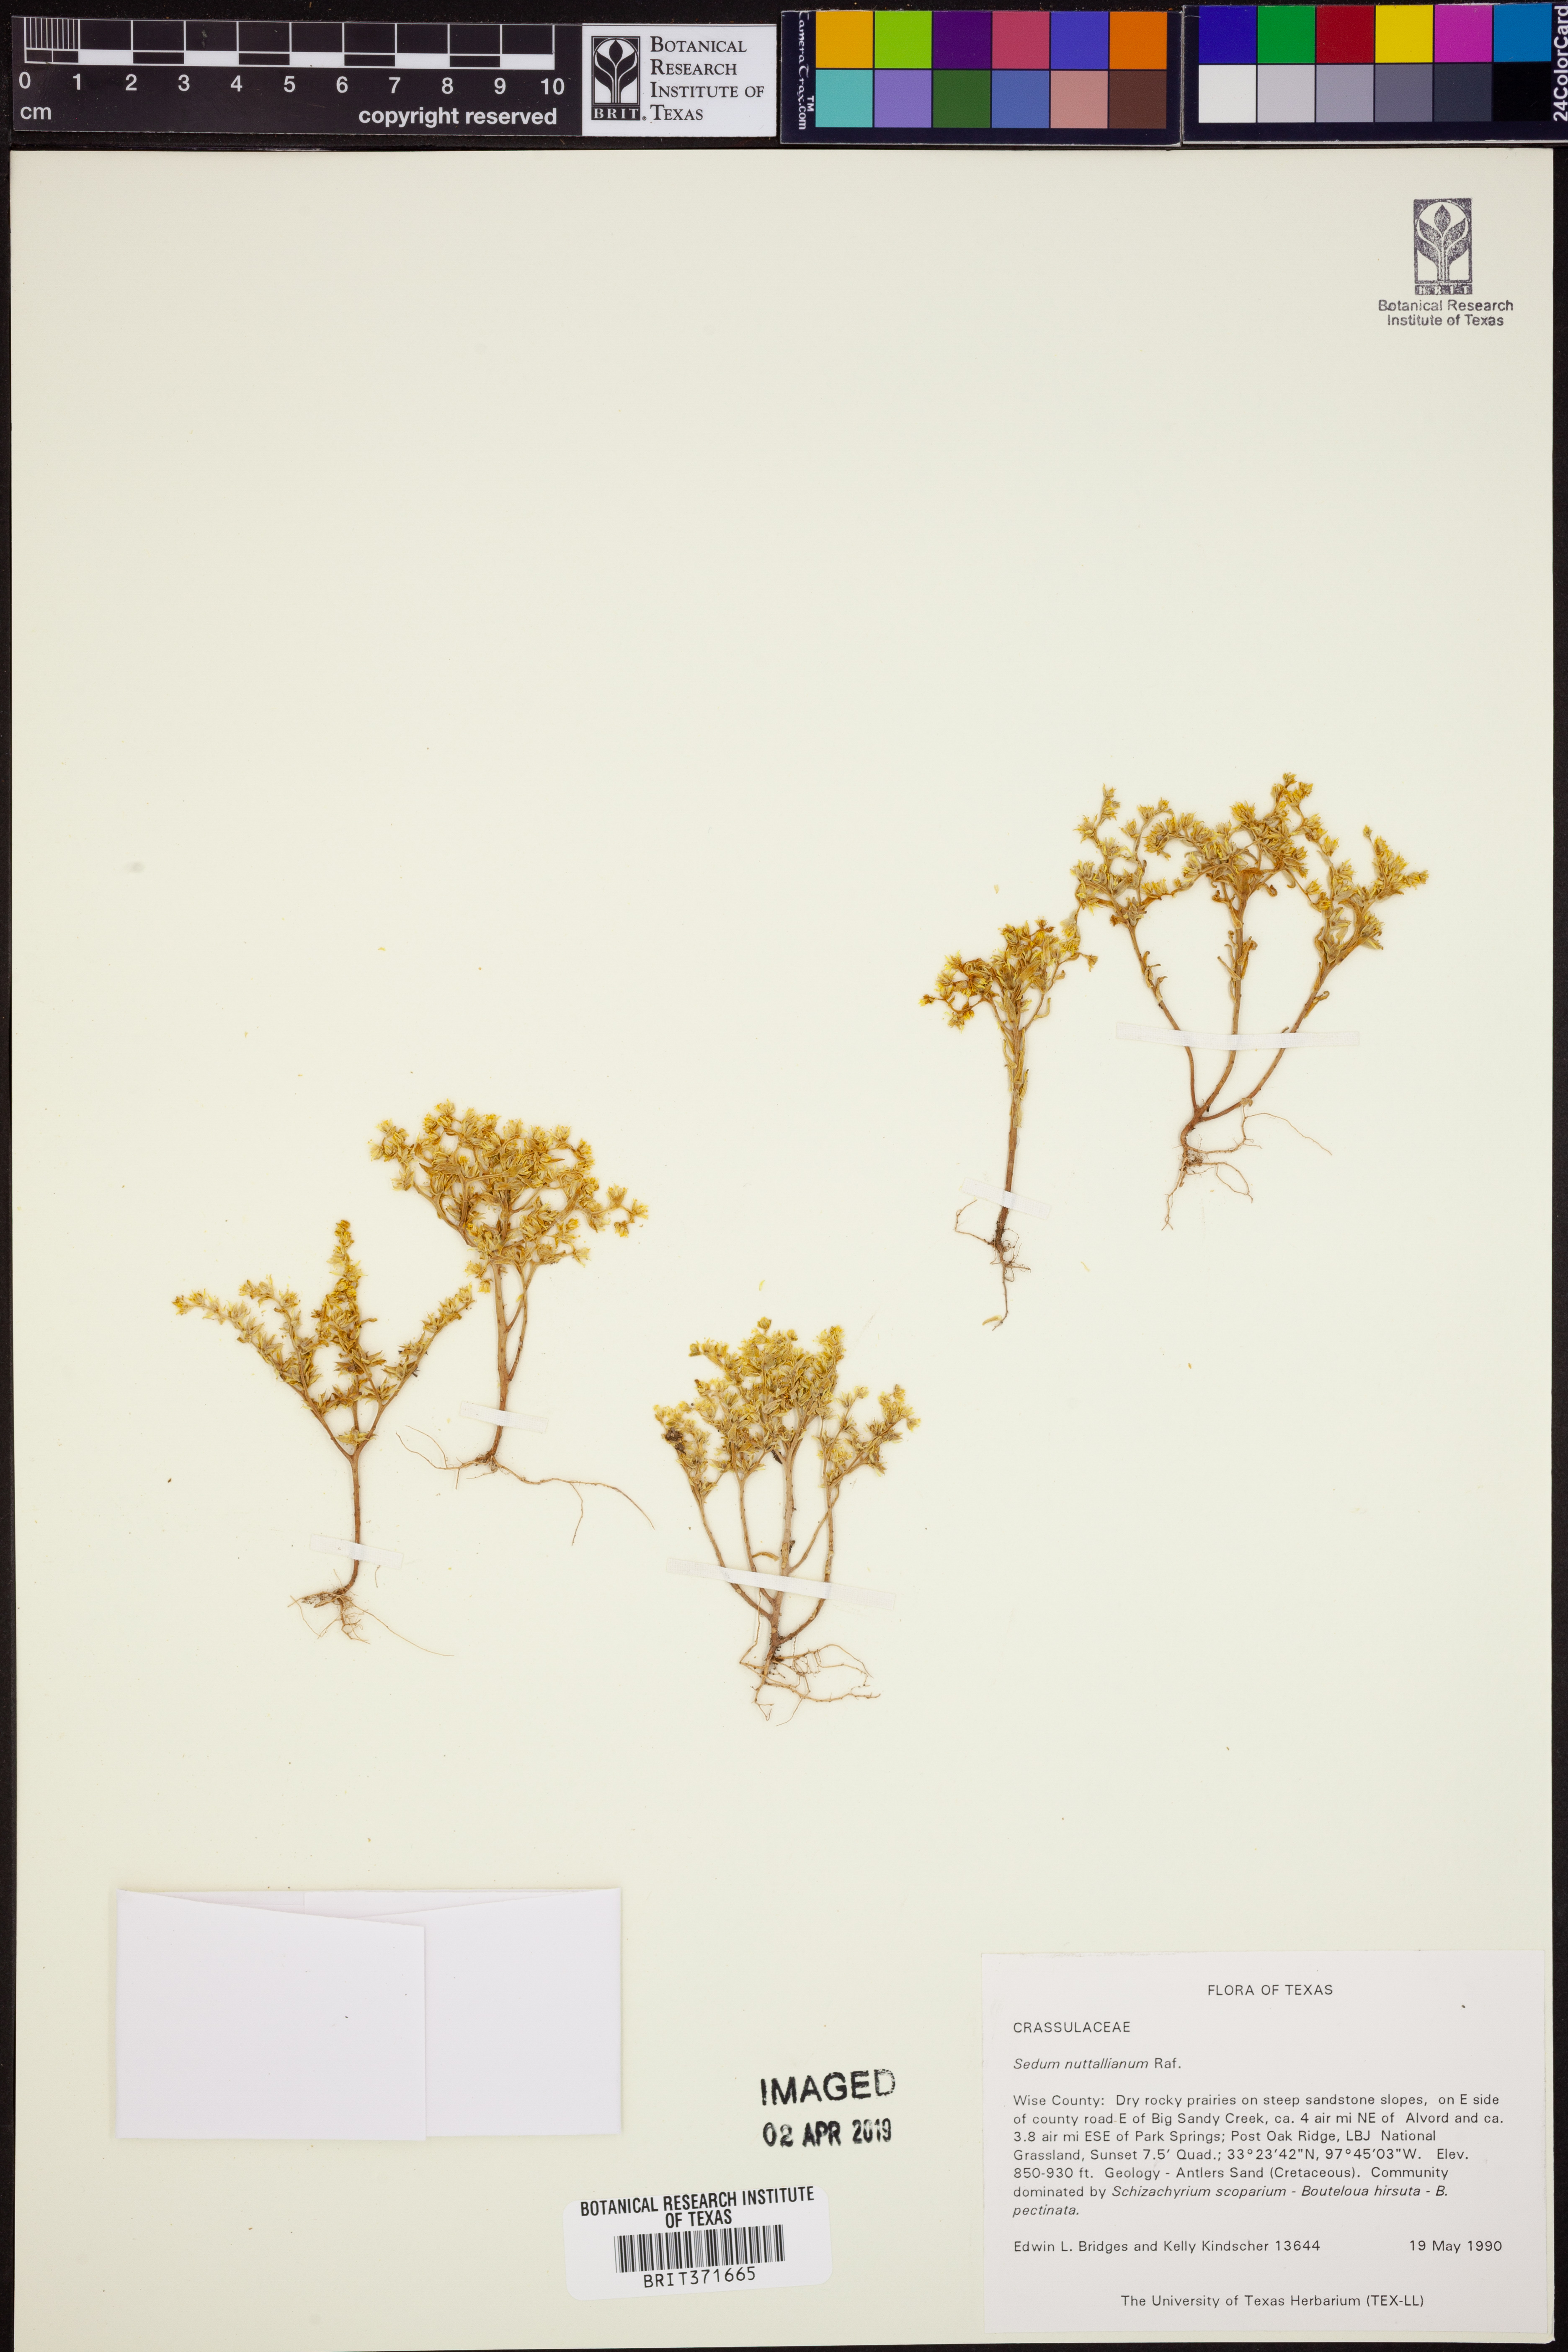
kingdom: Plantae
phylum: Tracheophyta
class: Magnoliopsida
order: Saxifragales
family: Crassulaceae
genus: Sedum
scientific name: Sedum nuttallii
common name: Yellow stonecrop
